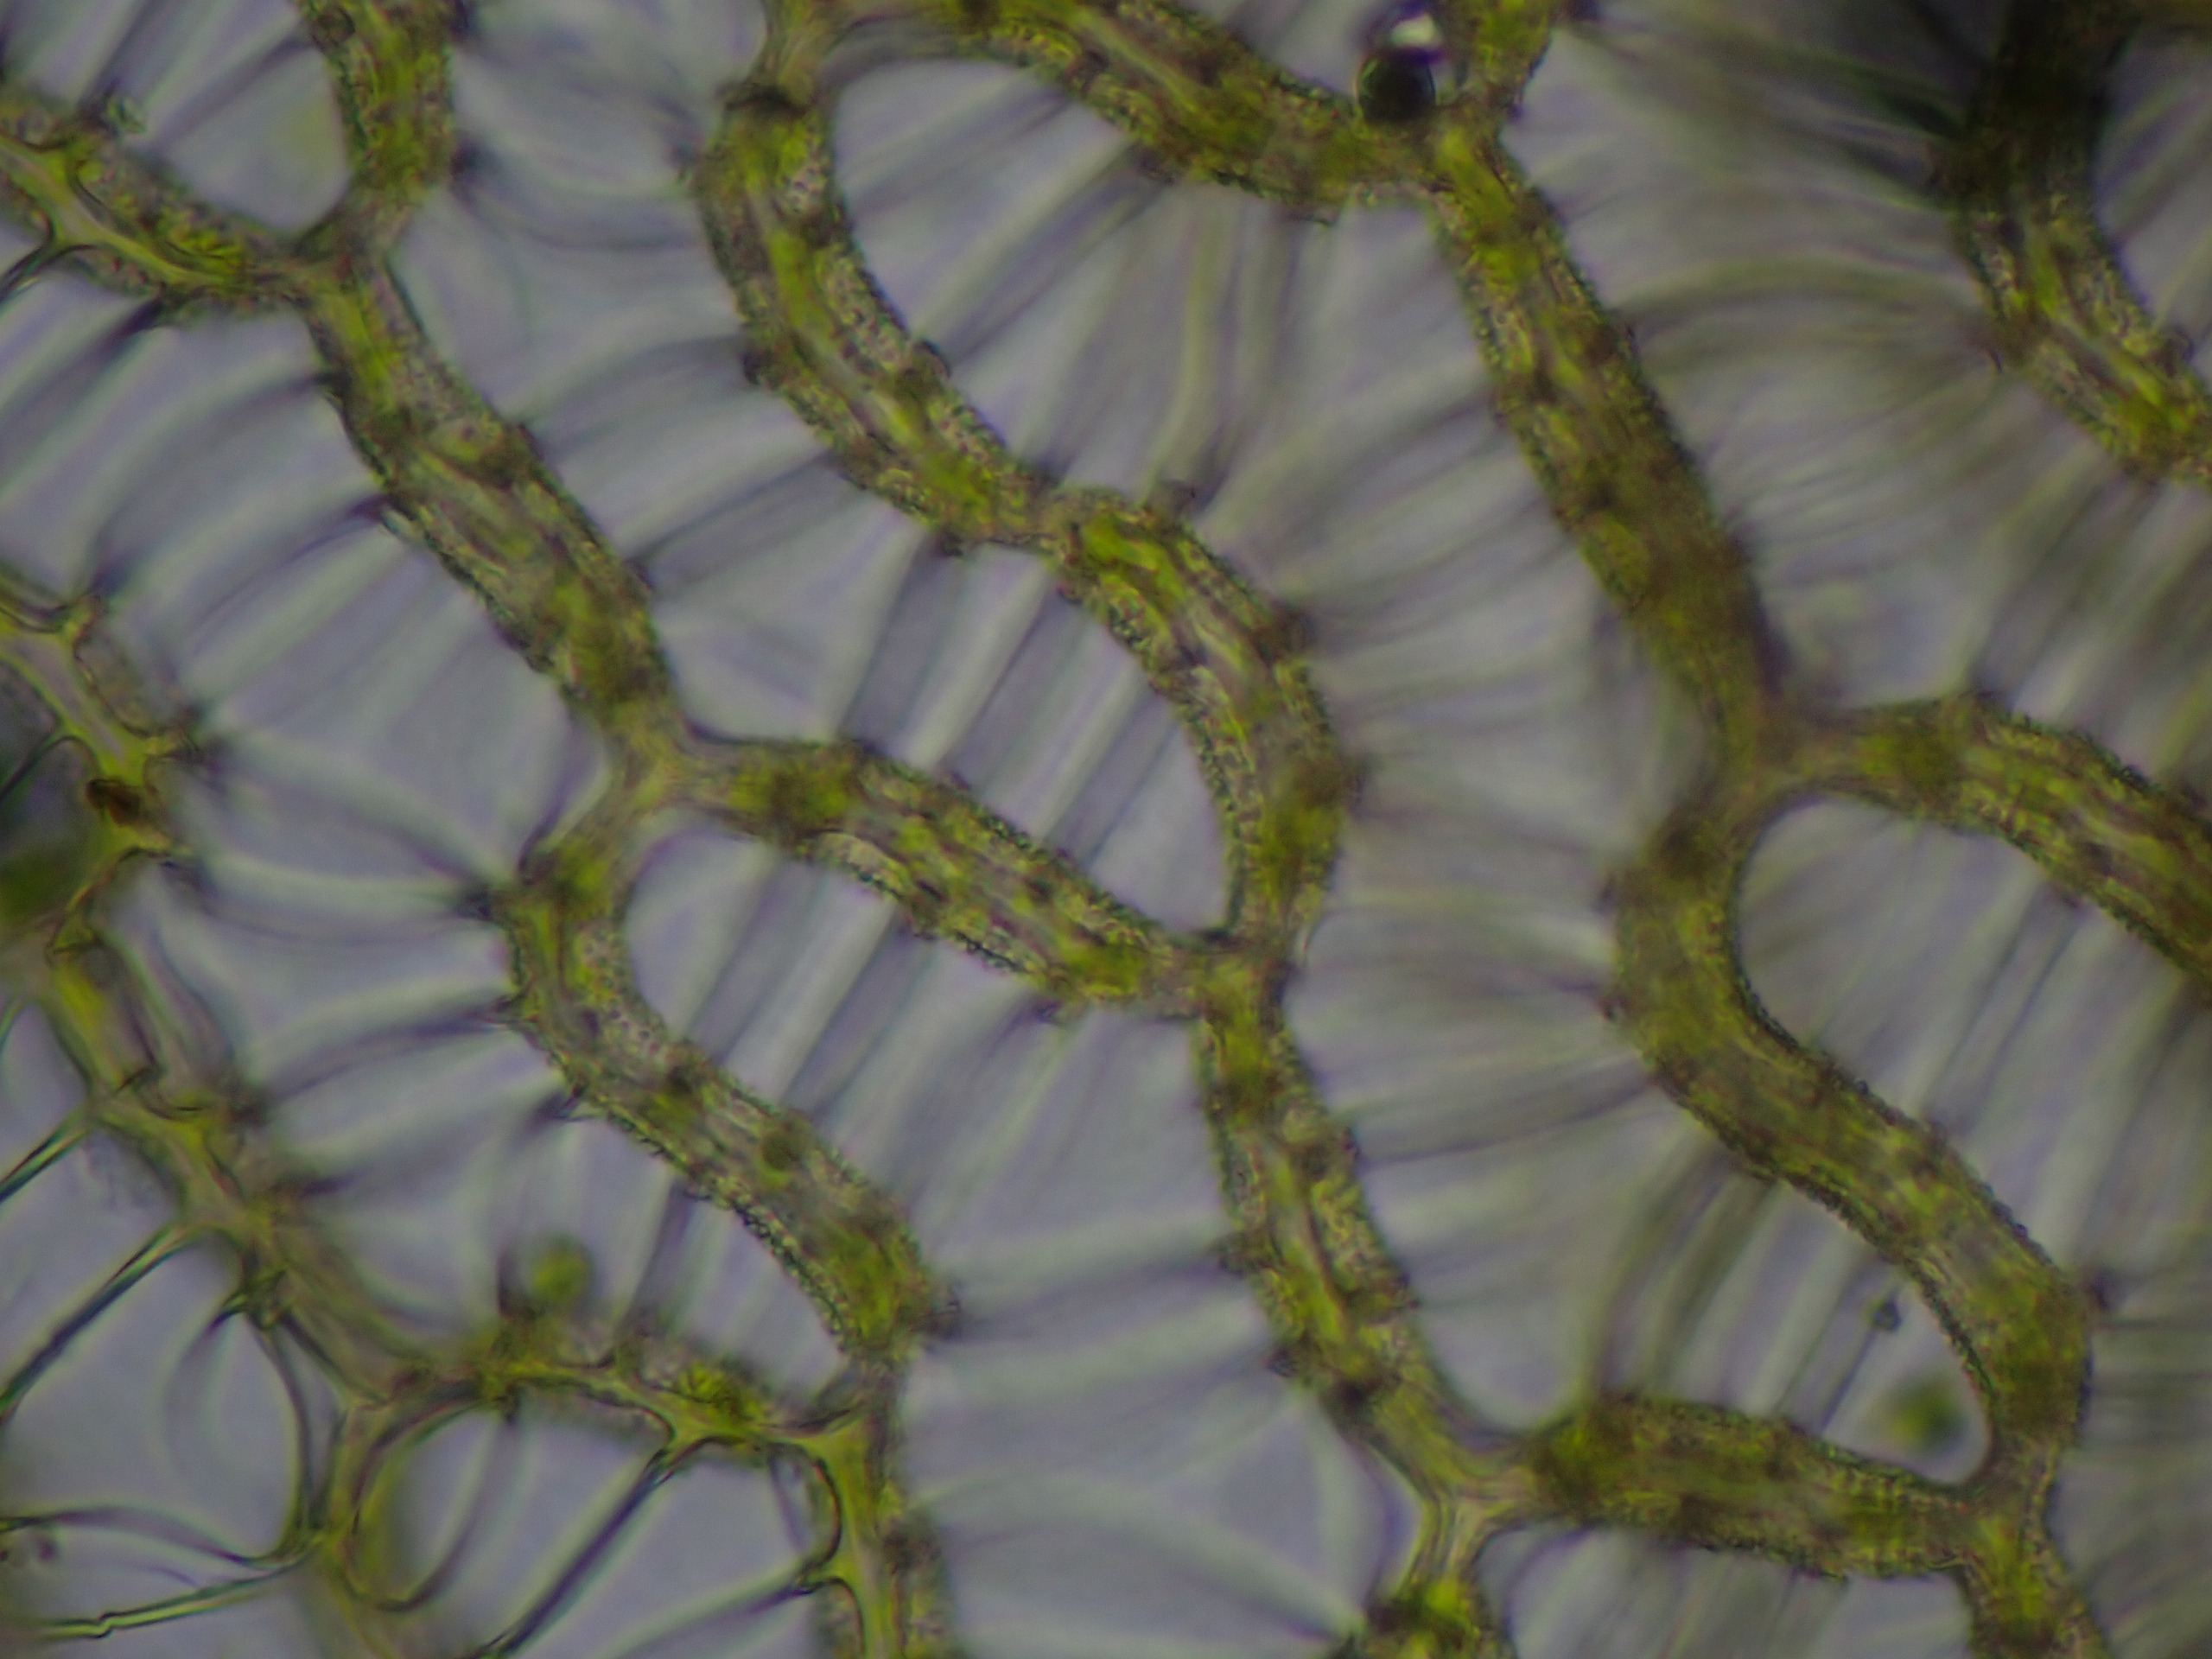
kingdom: Plantae
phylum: Bryophyta
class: Sphagnopsida
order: Sphagnales
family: Sphagnaceae
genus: Sphagnum
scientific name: Sphagnum papillosum
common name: Sod-tørvemos
